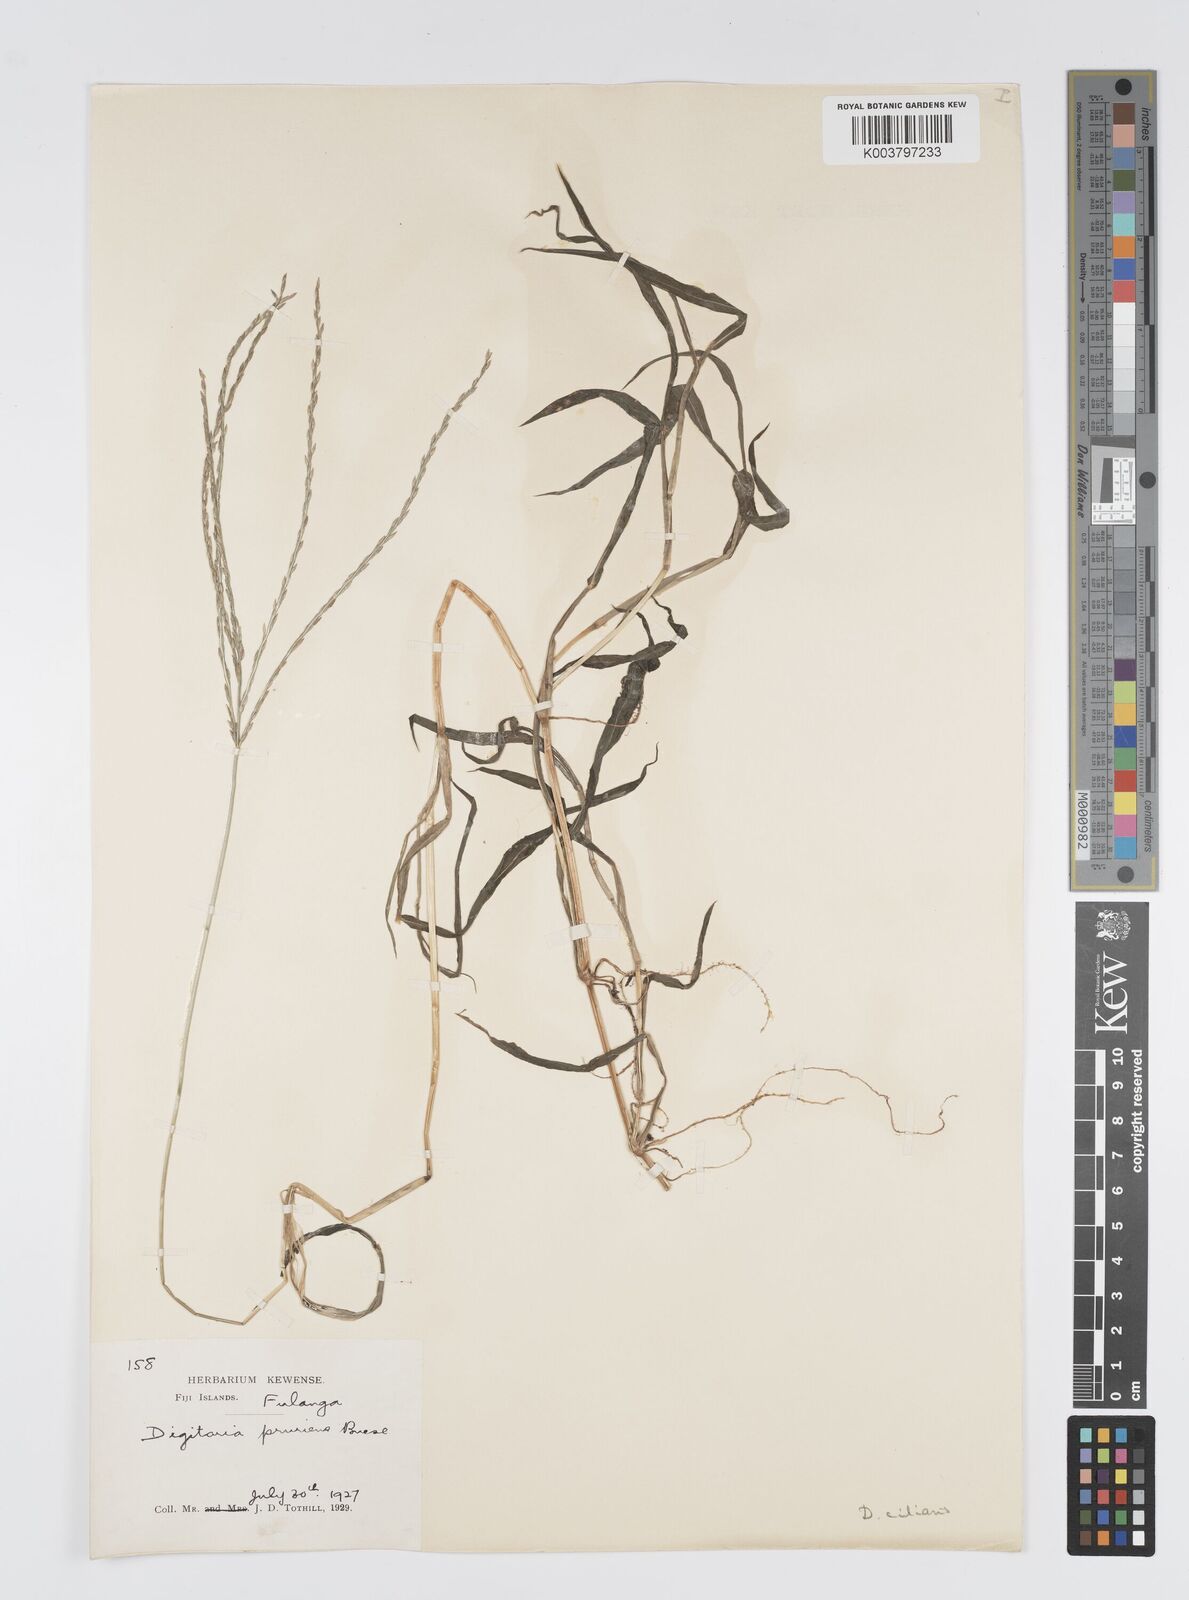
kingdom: Plantae
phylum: Tracheophyta
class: Liliopsida
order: Poales
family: Poaceae
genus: Digitaria
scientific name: Digitaria ciliaris
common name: Tropical finger-grass
